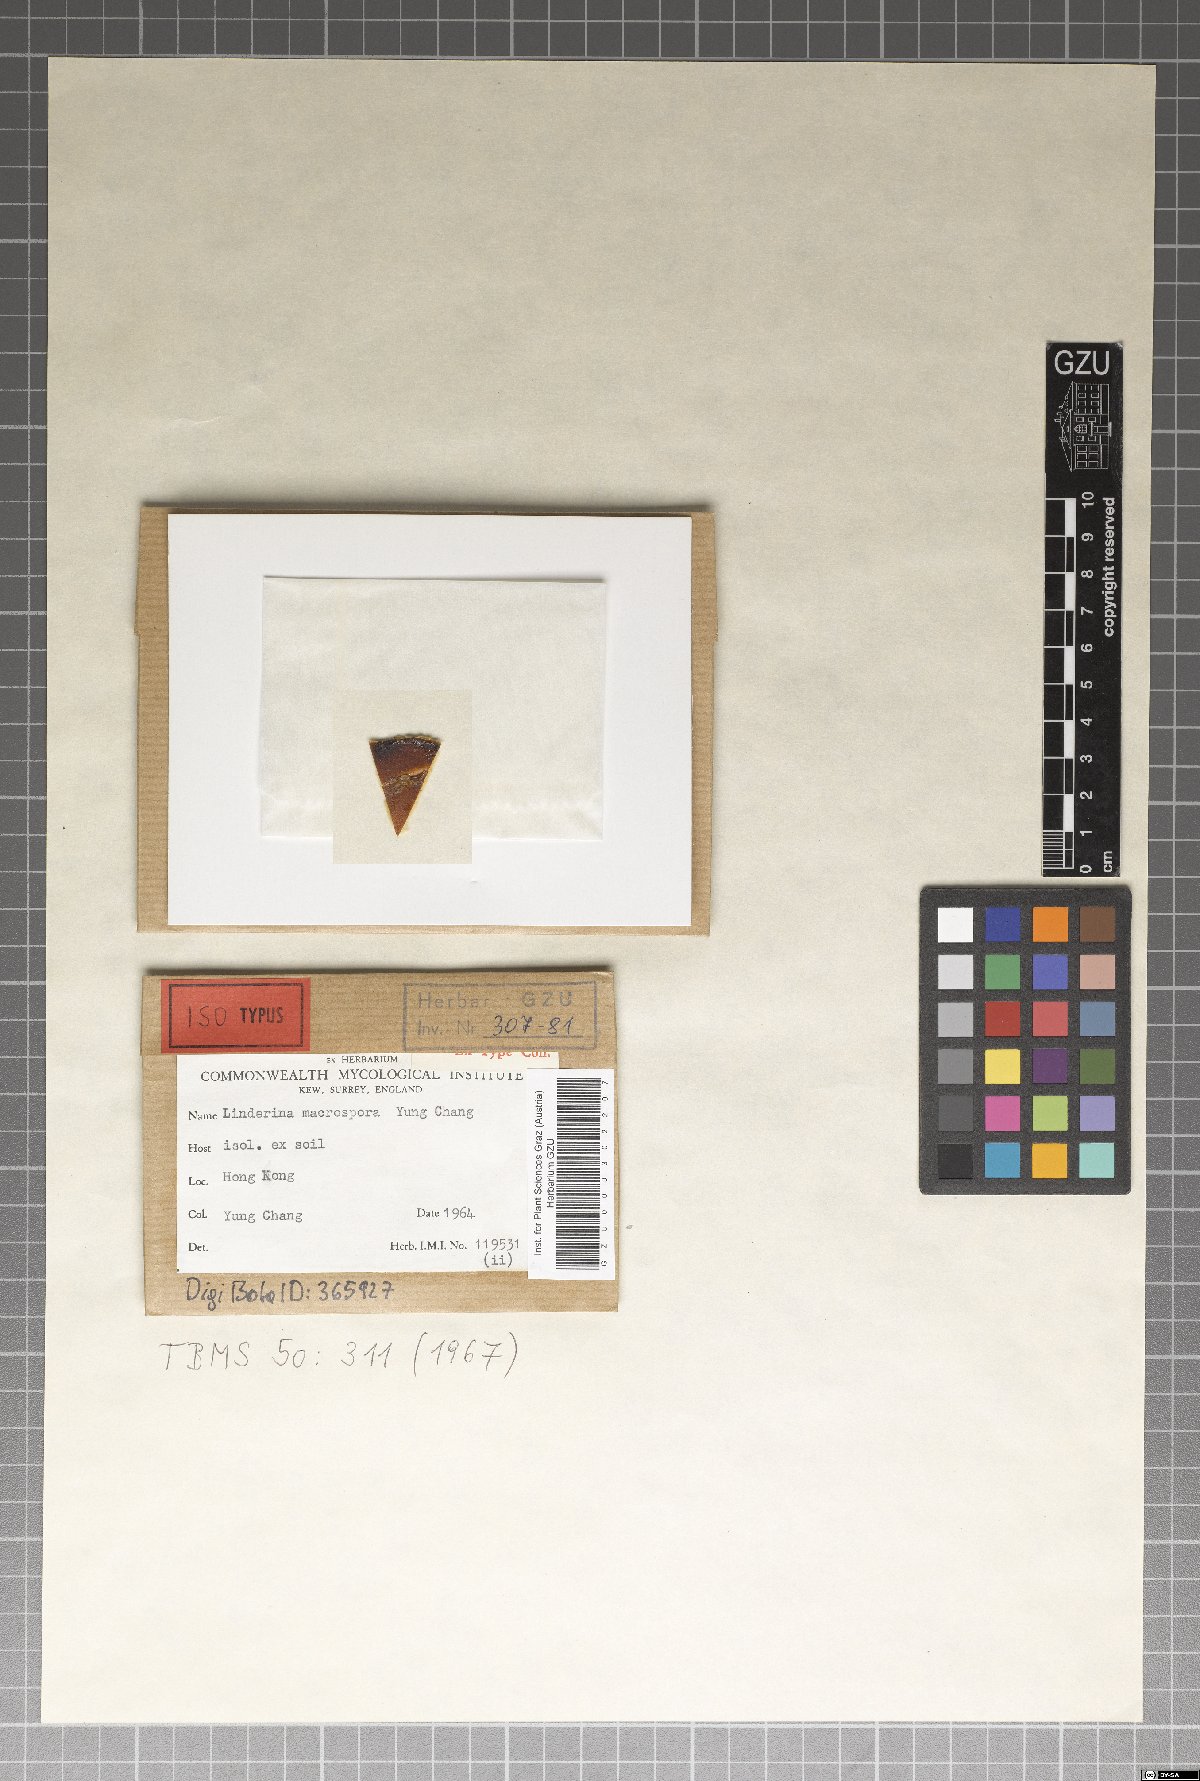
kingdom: Fungi
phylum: Mucoromycota
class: Kickxellomycetes
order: Kickxellales
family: Kickxellaceae
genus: Linderina
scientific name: Linderina macrospora
